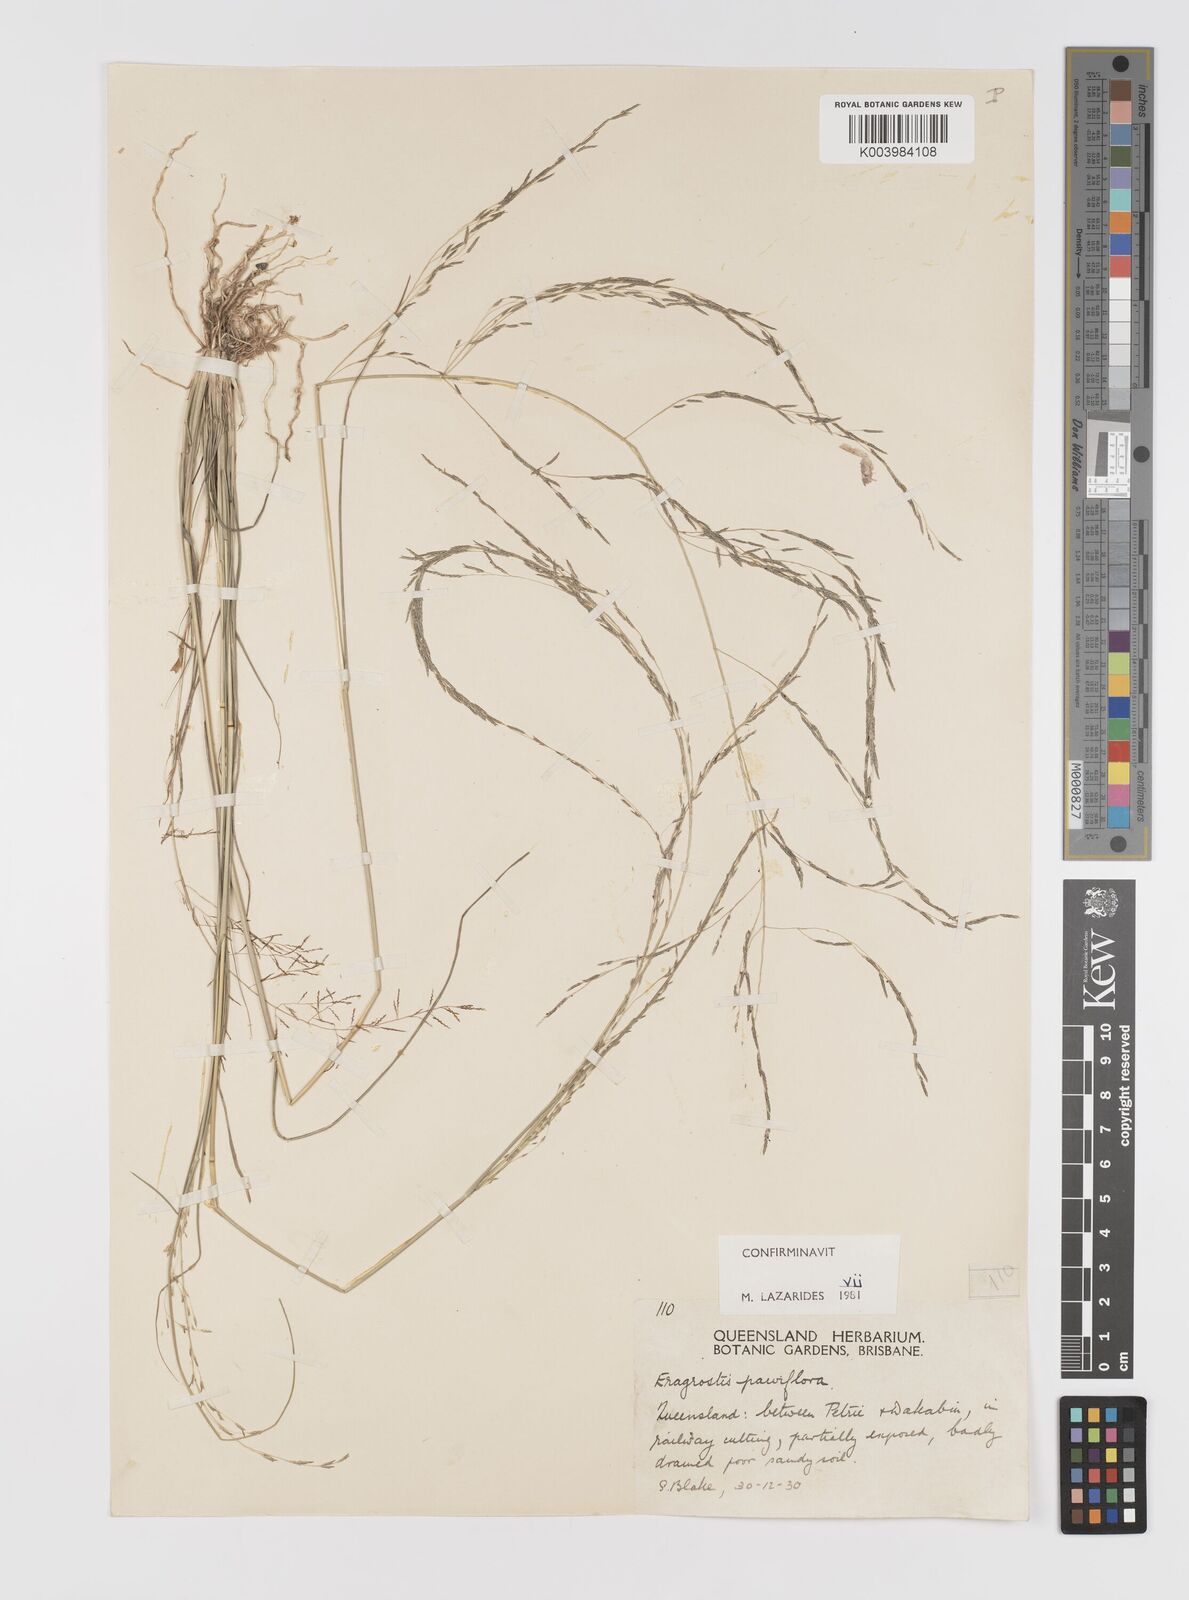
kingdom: Plantae
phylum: Tracheophyta
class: Liliopsida
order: Poales
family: Poaceae
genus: Eragrostis
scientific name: Eragrostis parviflora
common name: Weeping love-grass
